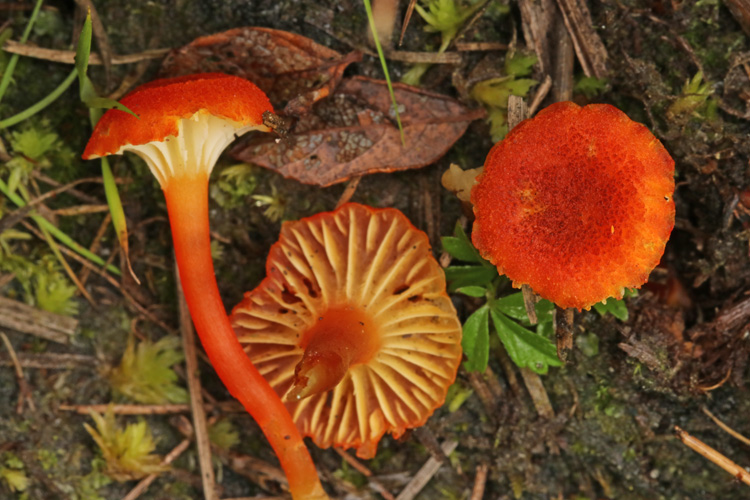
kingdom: Fungi
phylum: Basidiomycota
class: Agaricomycetes
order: Agaricales
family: Hygrophoraceae
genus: Hygrocybe
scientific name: Hygrocybe coccineocrenata
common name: tørvemos-vokshat
